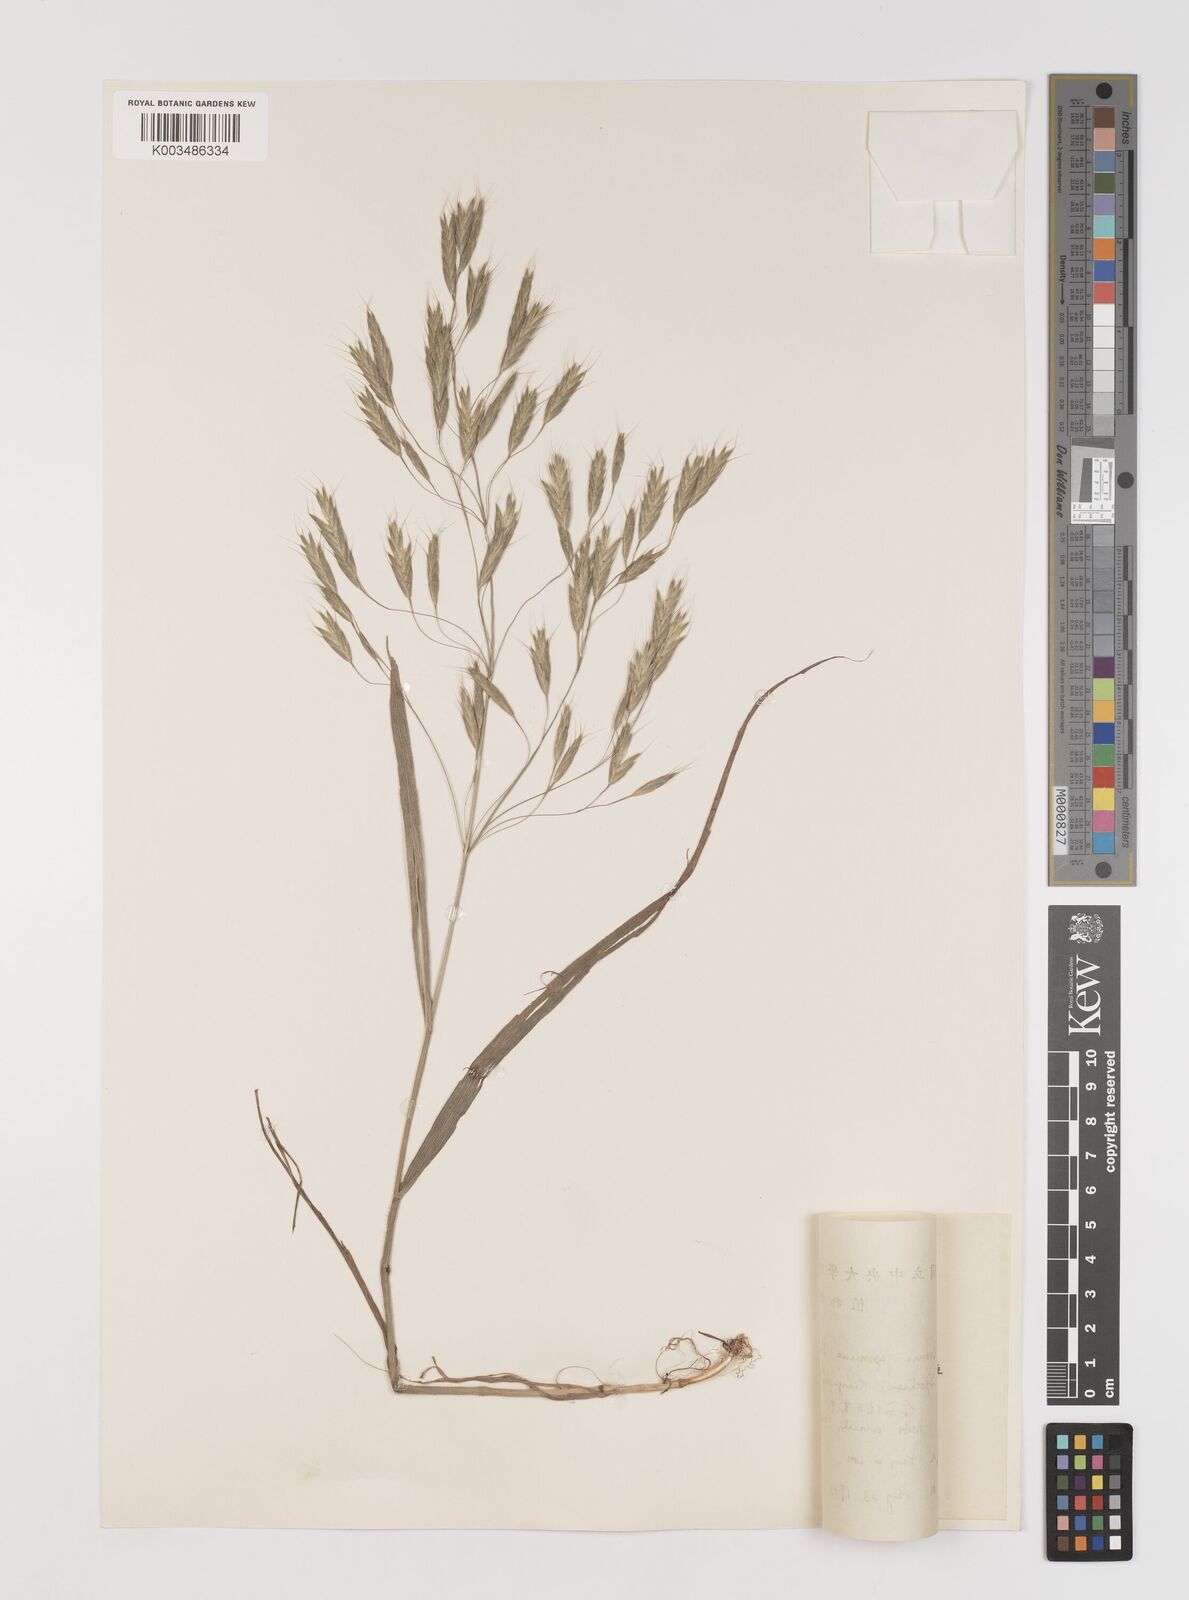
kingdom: Plantae
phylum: Tracheophyta
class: Liliopsida
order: Poales
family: Poaceae
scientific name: Poaceae
